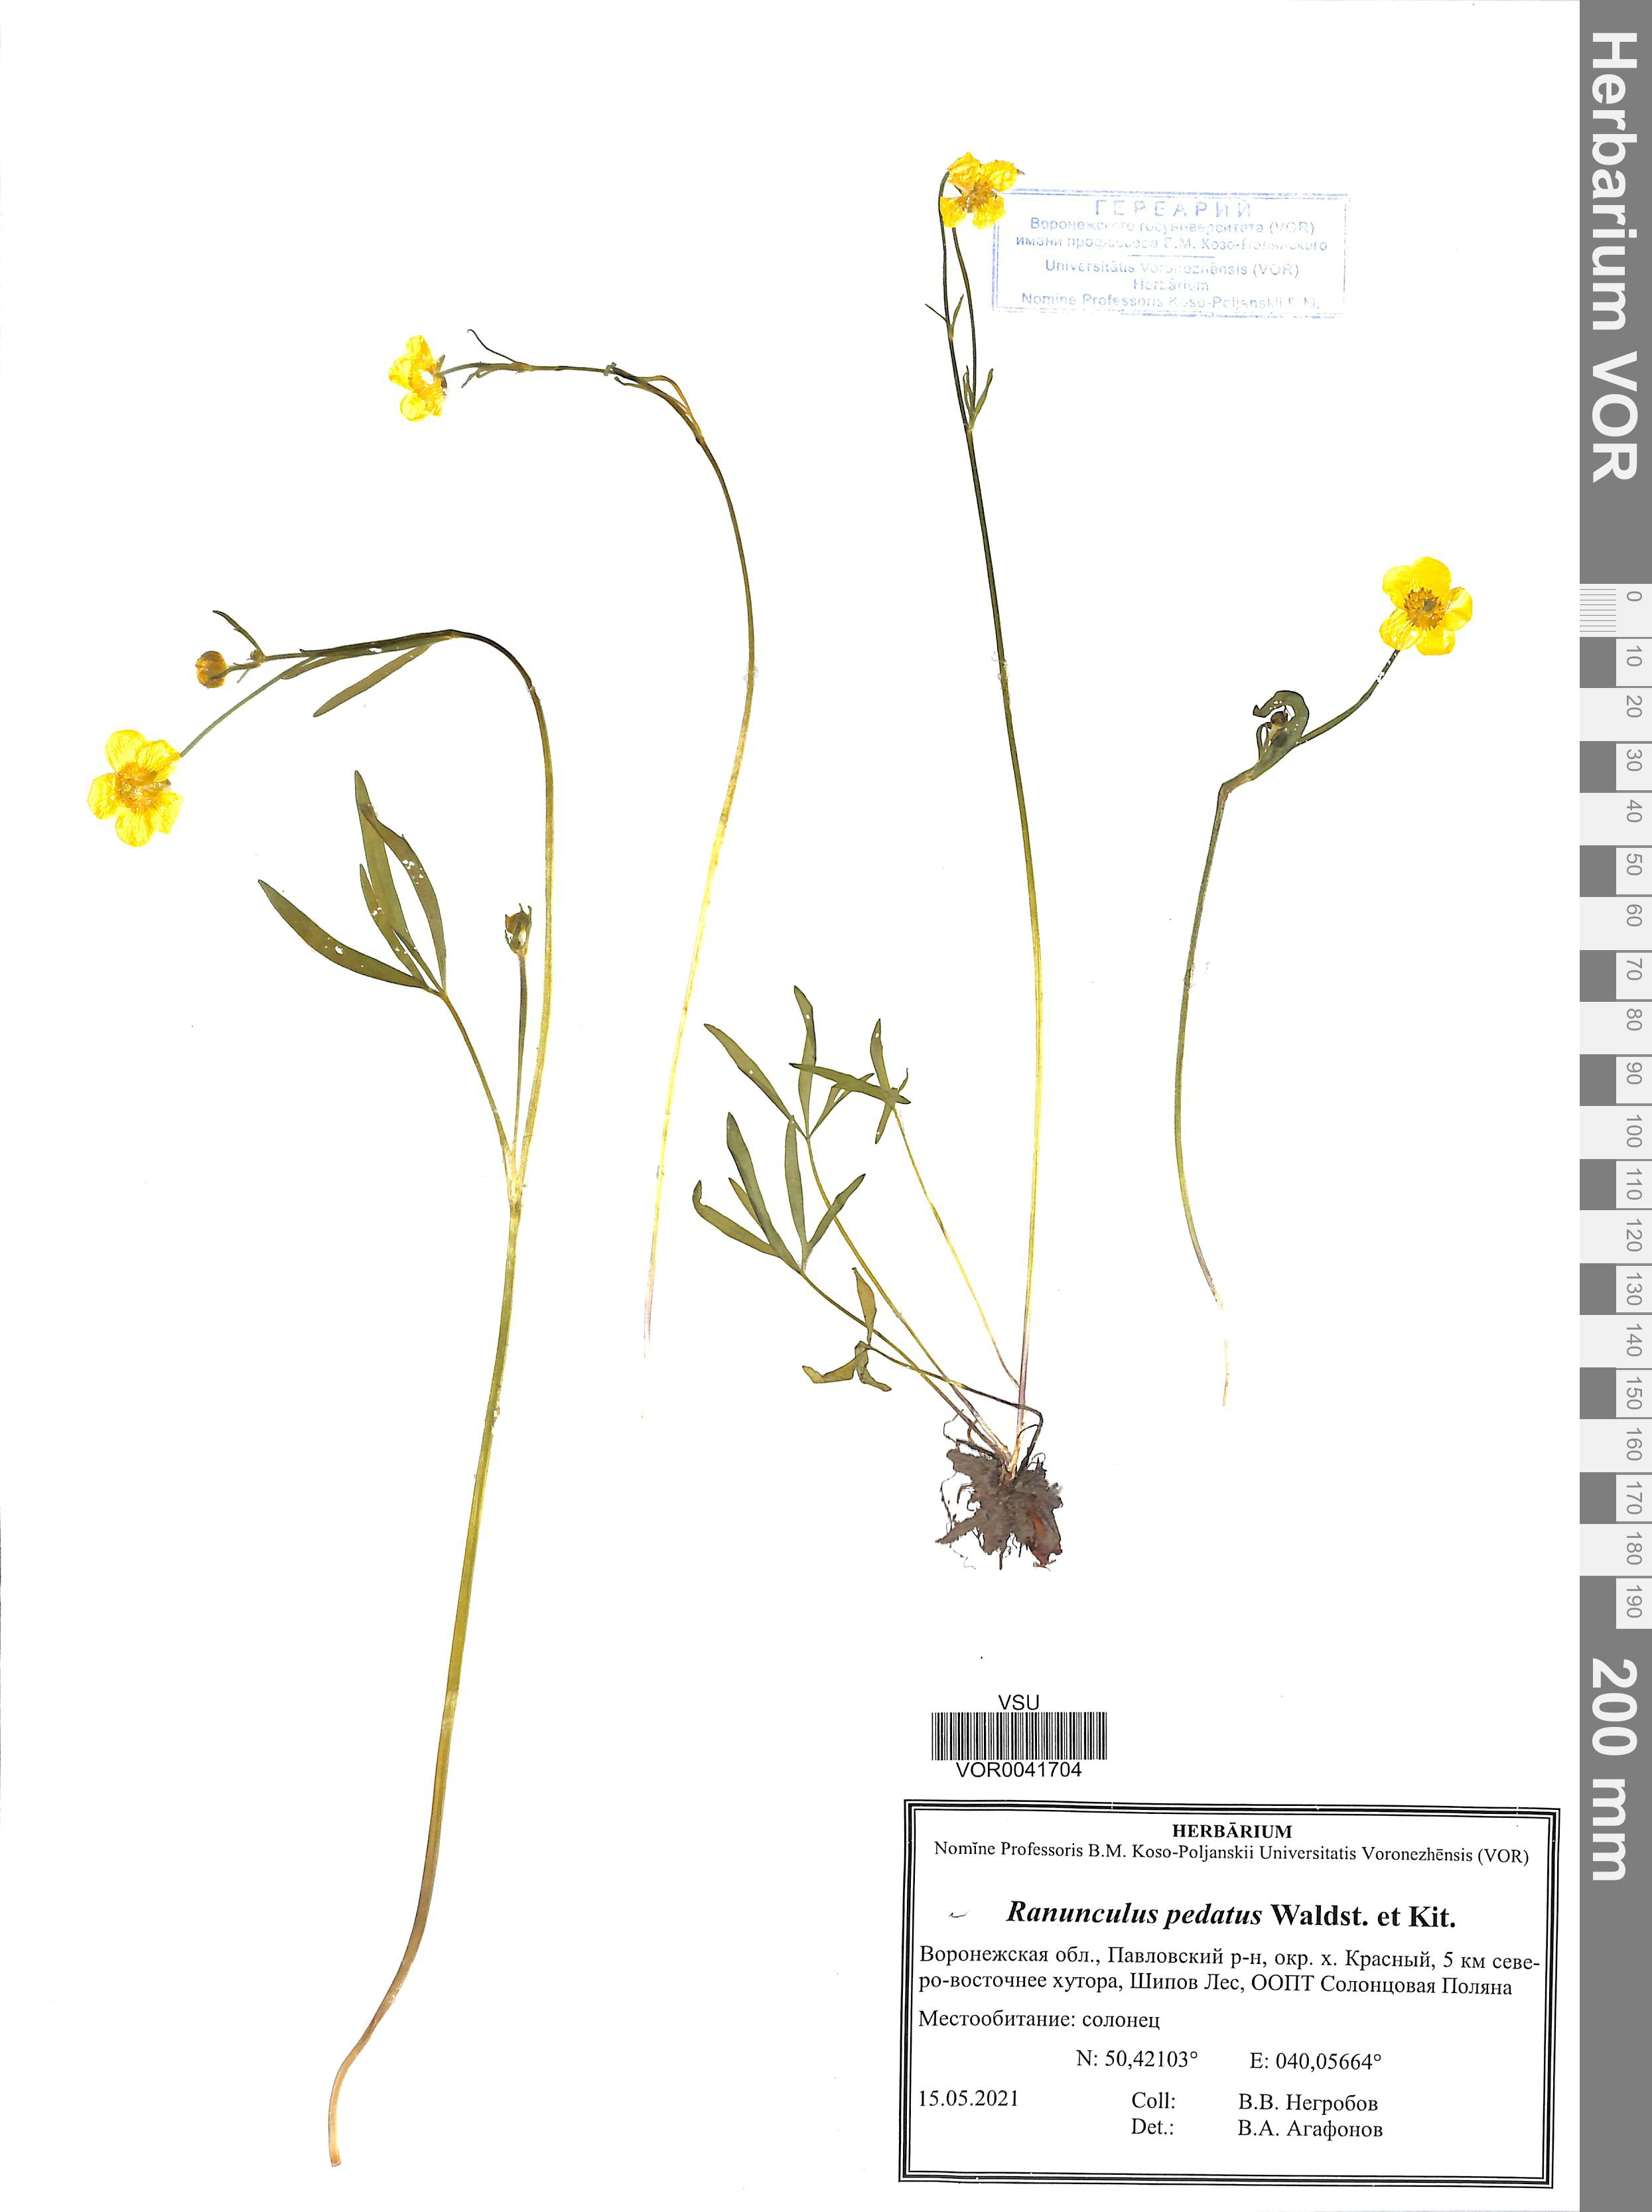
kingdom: Plantae
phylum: Tracheophyta
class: Magnoliopsida
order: Ranunculales
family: Ranunculaceae
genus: Ranunculus
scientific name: Ranunculus pedatus
